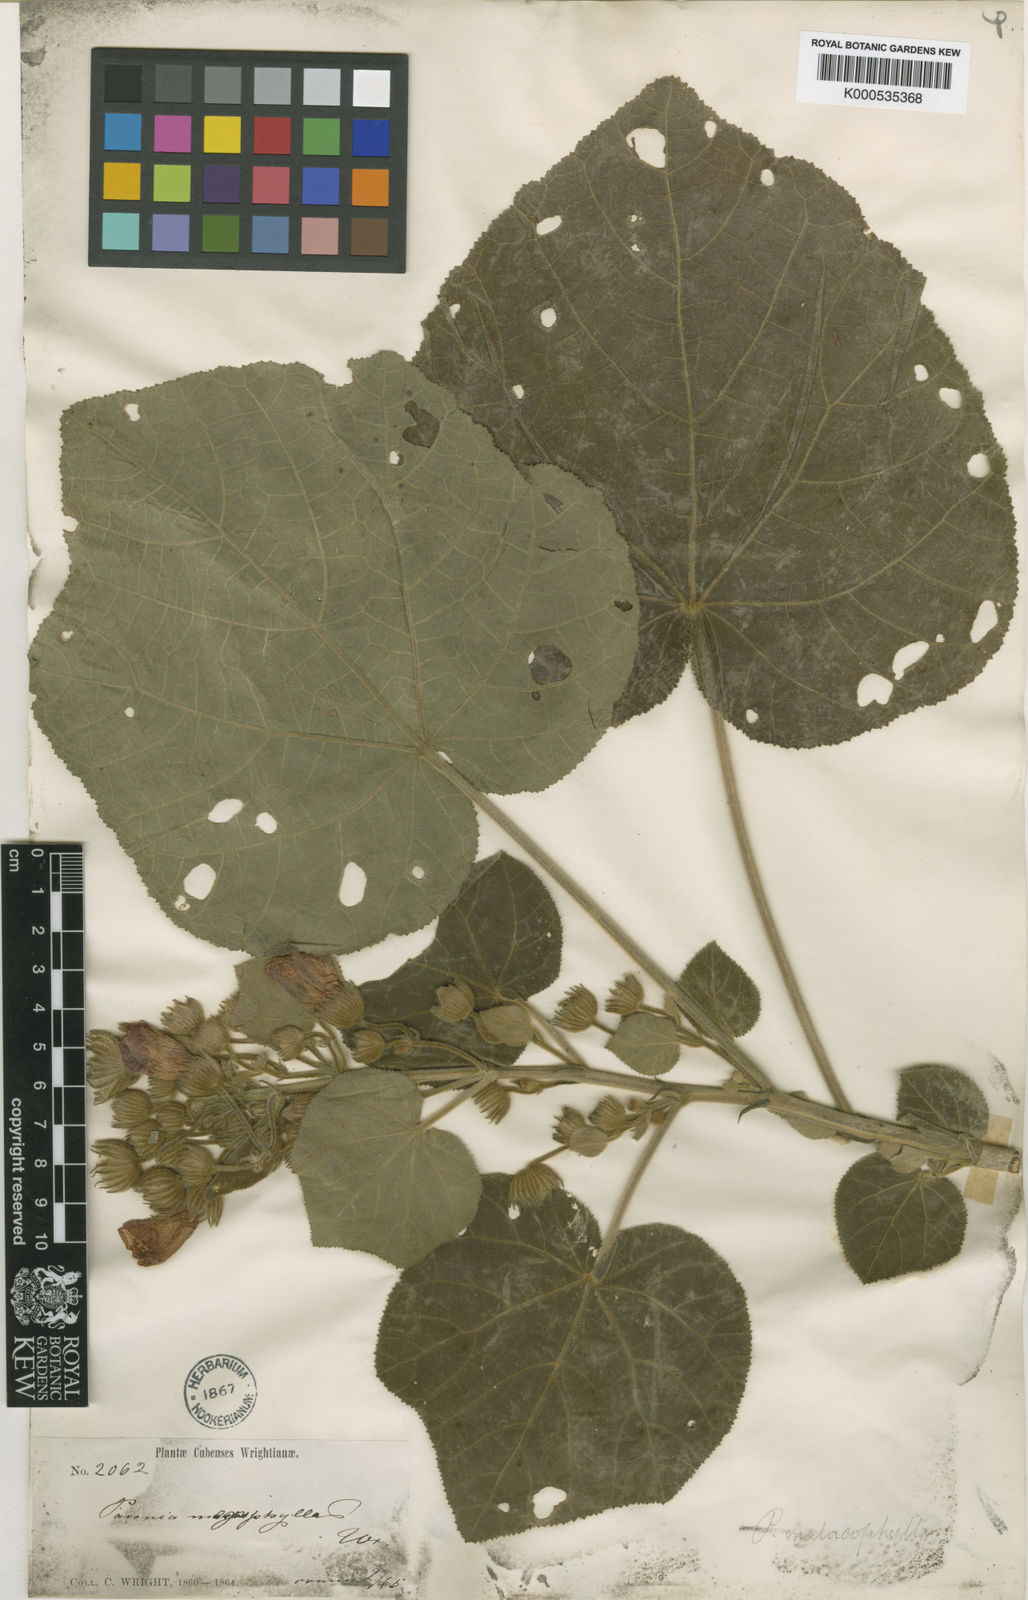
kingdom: Plantae
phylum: Tracheophyta
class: Magnoliopsida
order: Malvales
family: Malvaceae
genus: Pavonia
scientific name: Pavonia malacophylla
